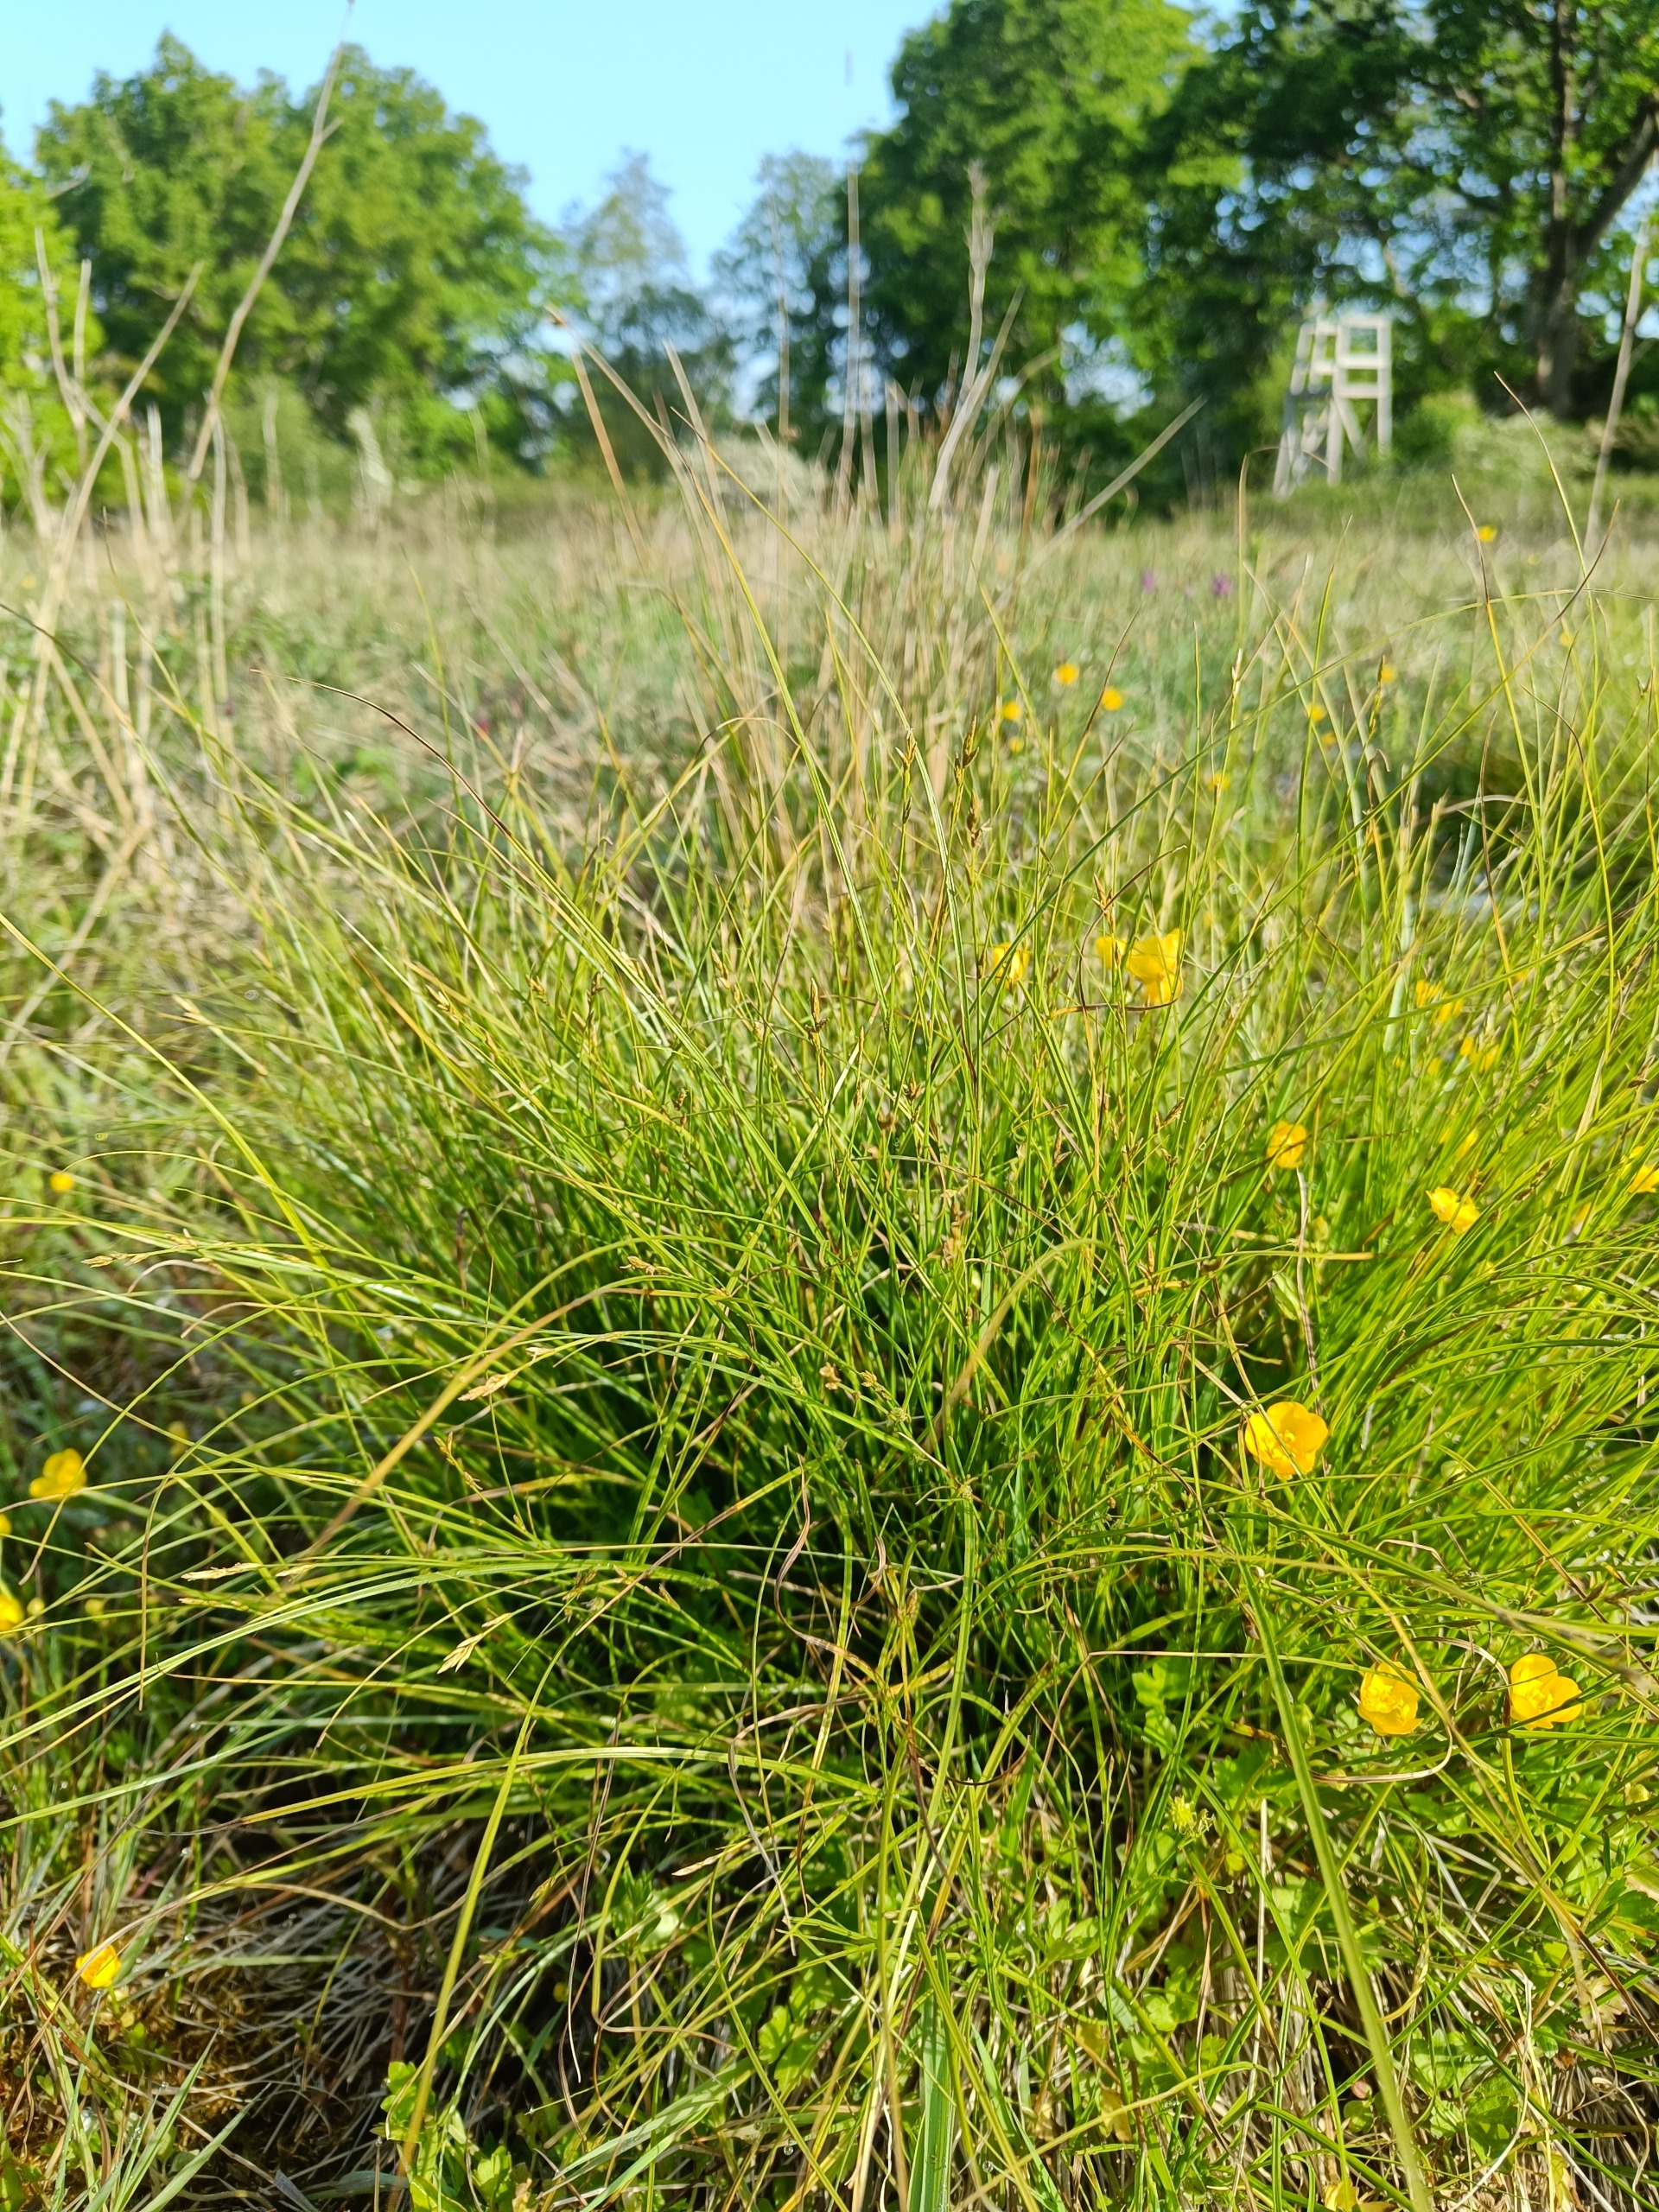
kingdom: Plantae
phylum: Tracheophyta
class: Liliopsida
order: Poales
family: Cyperaceae
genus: Carex
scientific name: Carex remota
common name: Akselblomstret star
